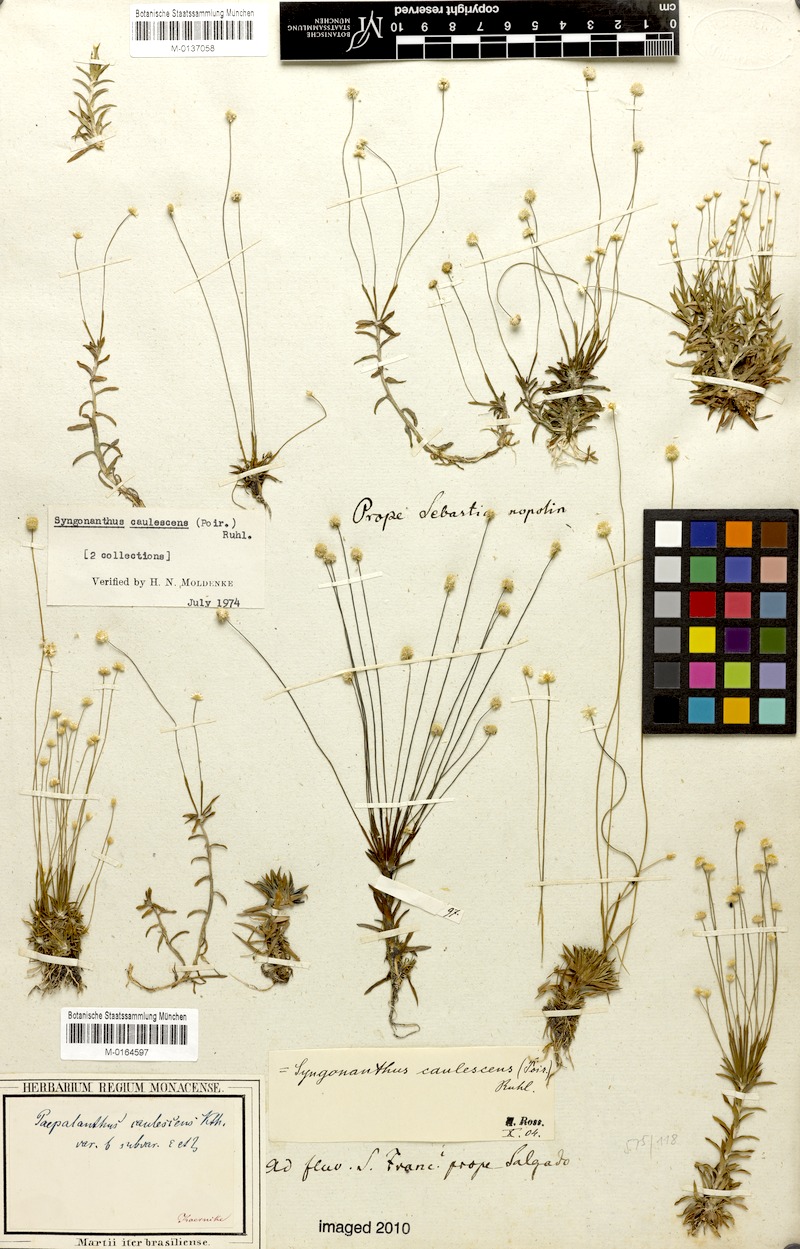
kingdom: Plantae
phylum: Tracheophyta
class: Liliopsida
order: Poales
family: Eriocaulaceae
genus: Syngonanthus
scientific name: Syngonanthus caulescens
